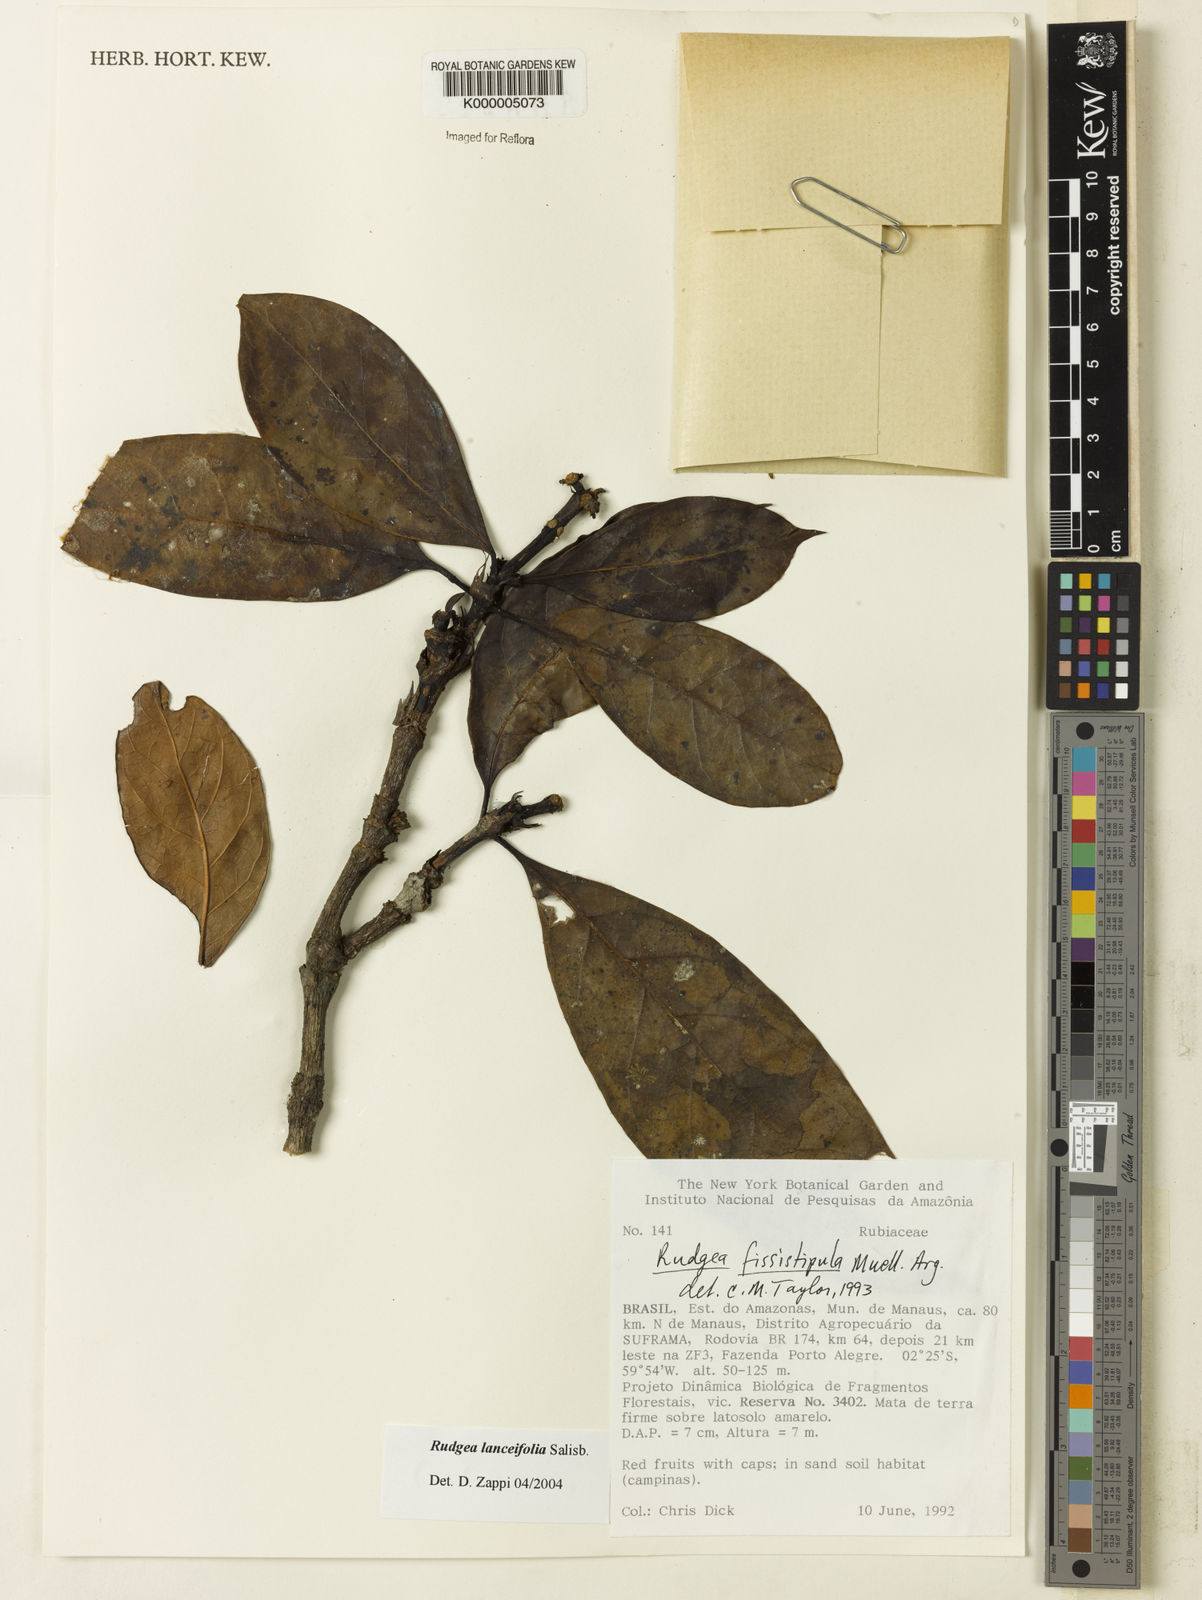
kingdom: Plantae
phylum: Tracheophyta
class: Magnoliopsida
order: Gentianales
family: Rubiaceae
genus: Rudgea
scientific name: Rudgea lanceifolia
